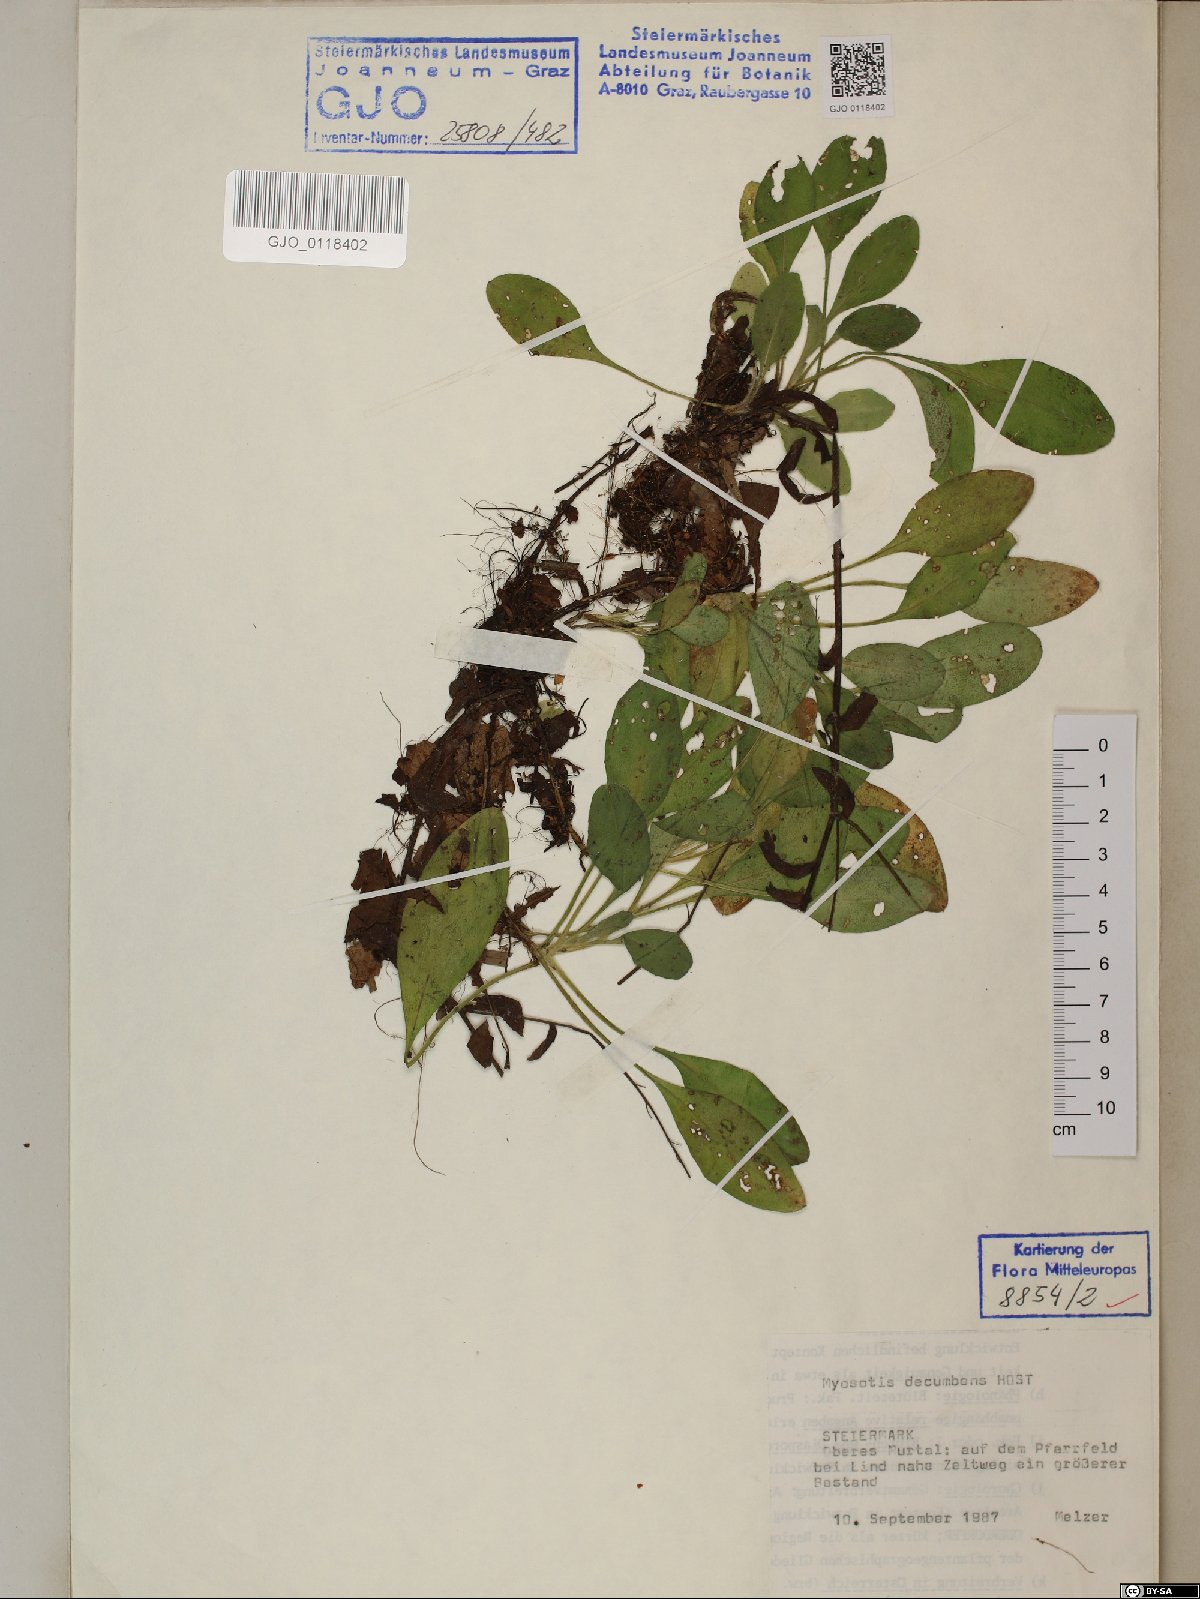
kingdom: Plantae
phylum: Tracheophyta
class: Magnoliopsida
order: Boraginales
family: Boraginaceae
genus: Myosotis
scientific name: Myosotis decumbens
